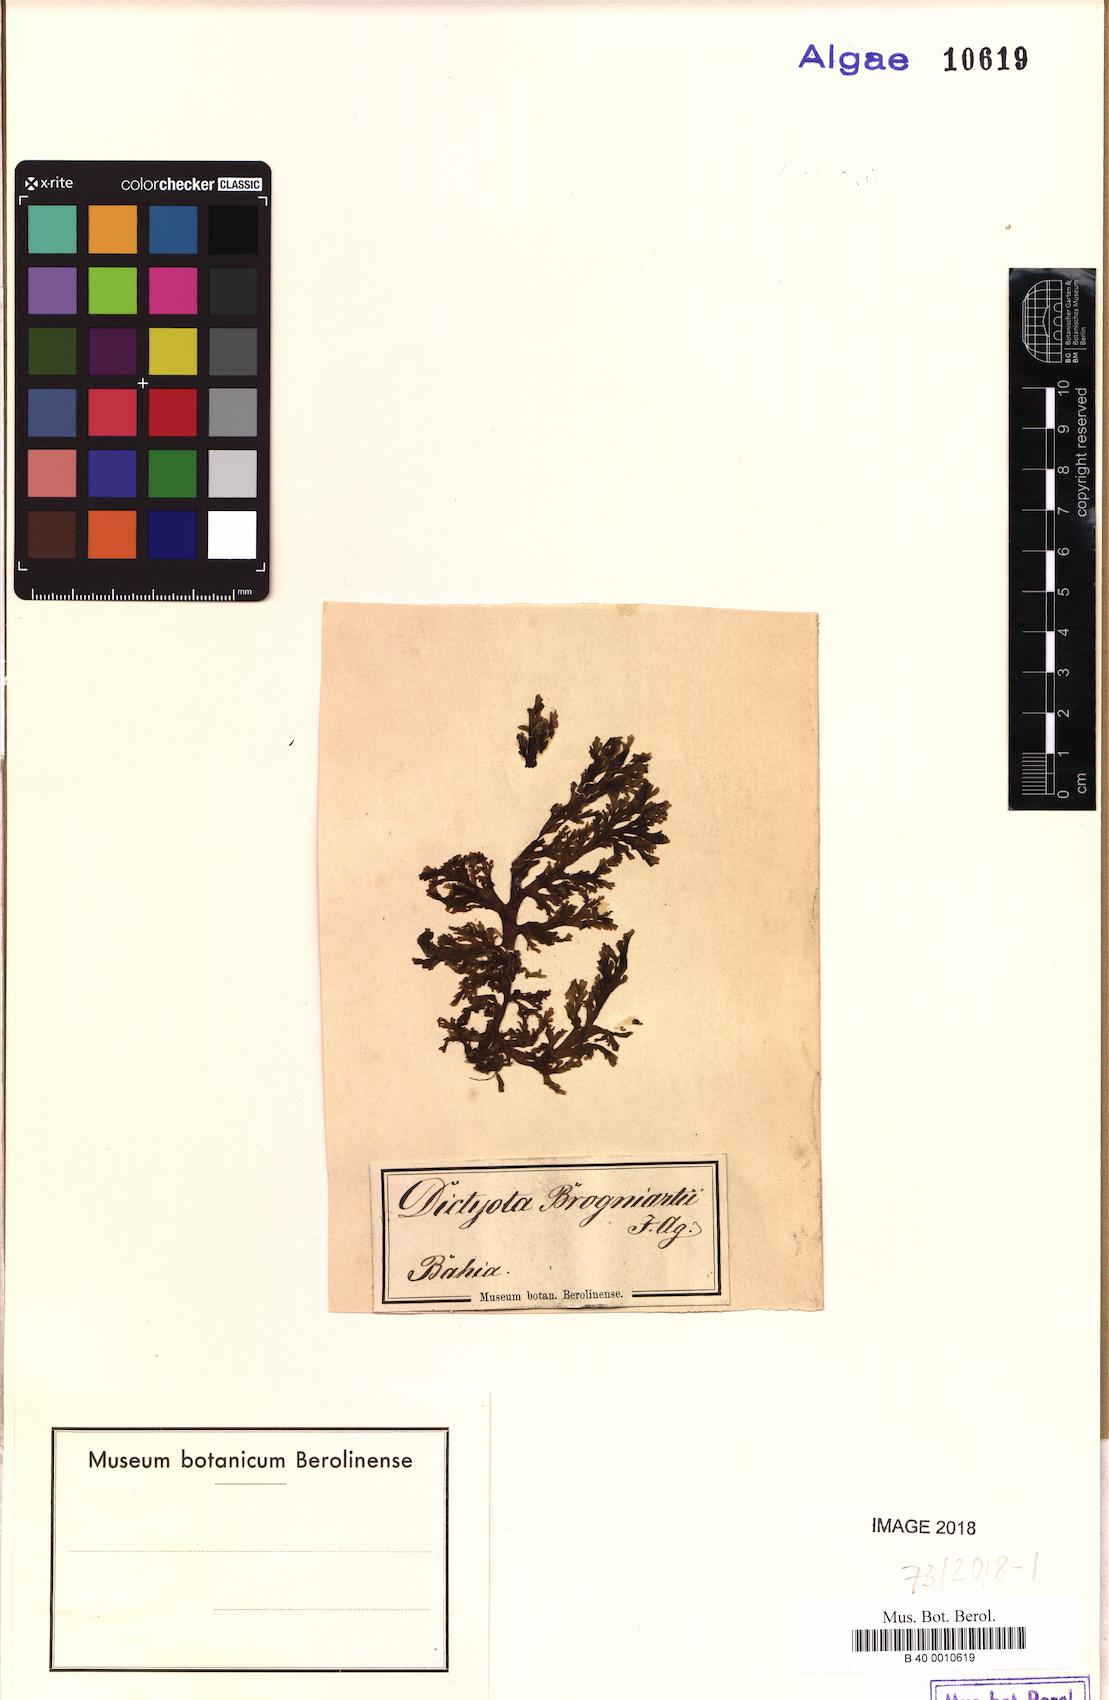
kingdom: Chromista
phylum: Ochrophyta
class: Phaeophyceae
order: Dictyotales
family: Dictyotaceae
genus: Dictyota
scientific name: Dictyota mertensii
